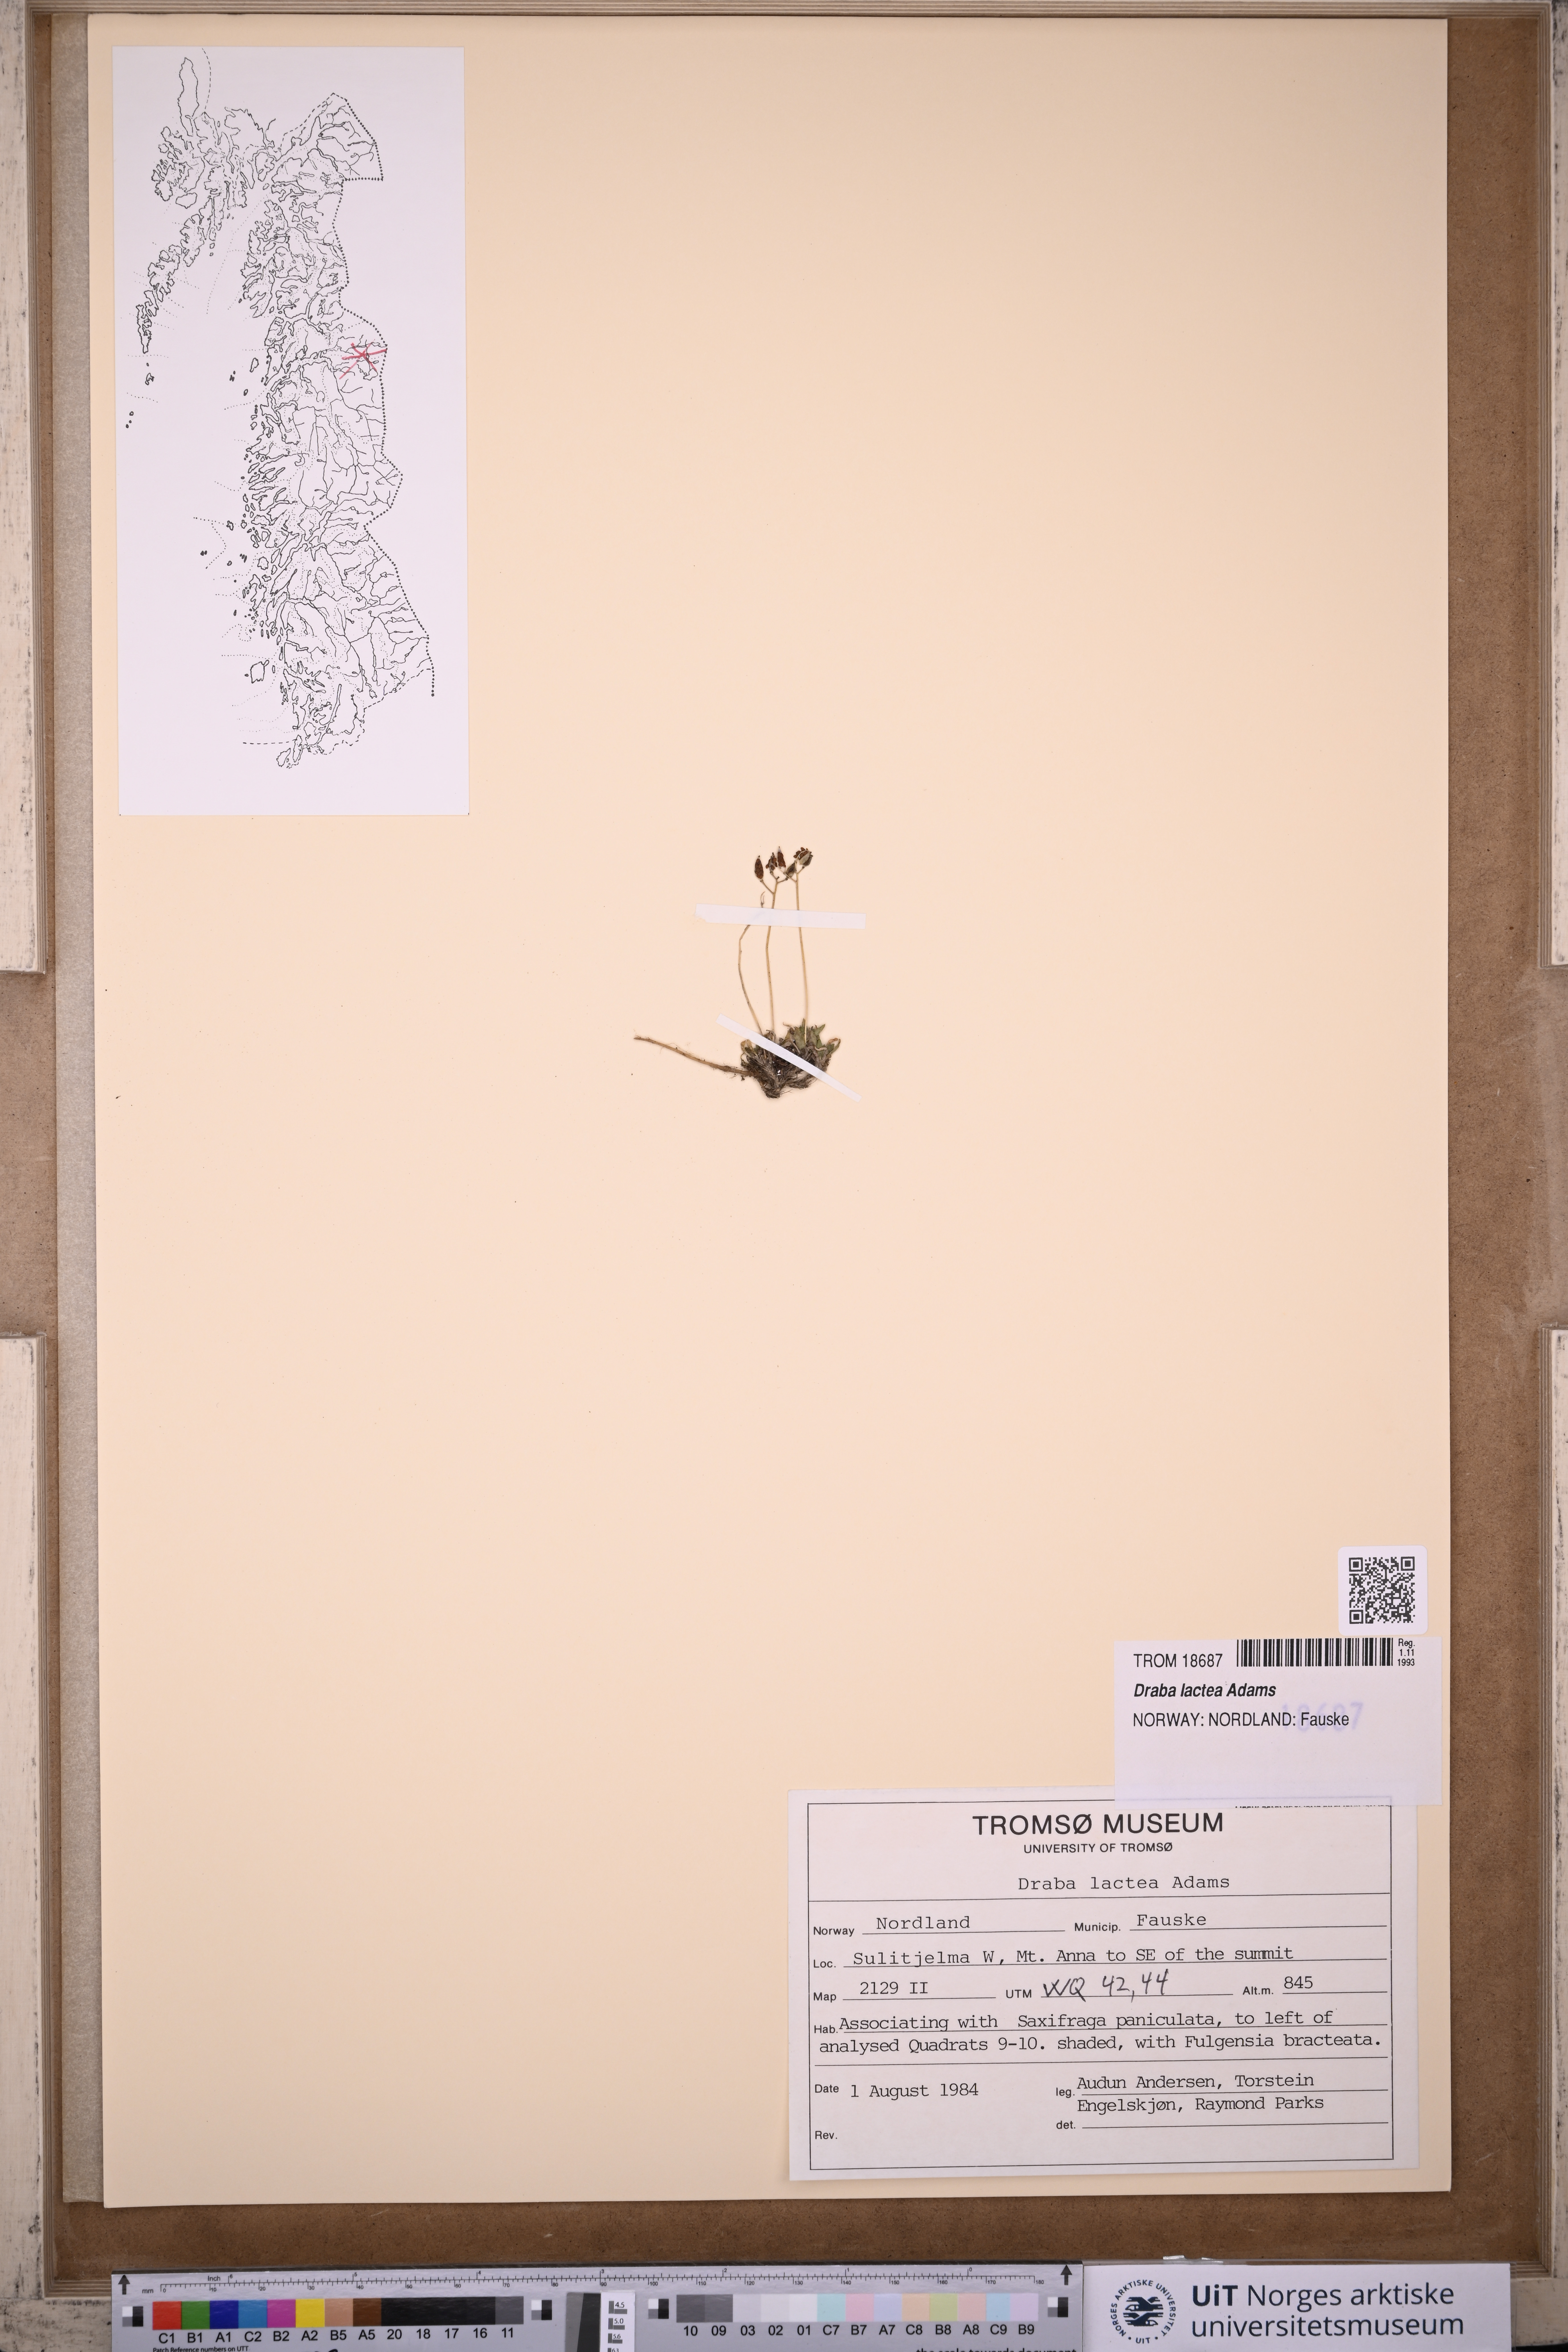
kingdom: Plantae
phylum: Tracheophyta
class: Magnoliopsida
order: Brassicales
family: Brassicaceae
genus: Draba
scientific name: Draba lactea
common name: Milky draba
